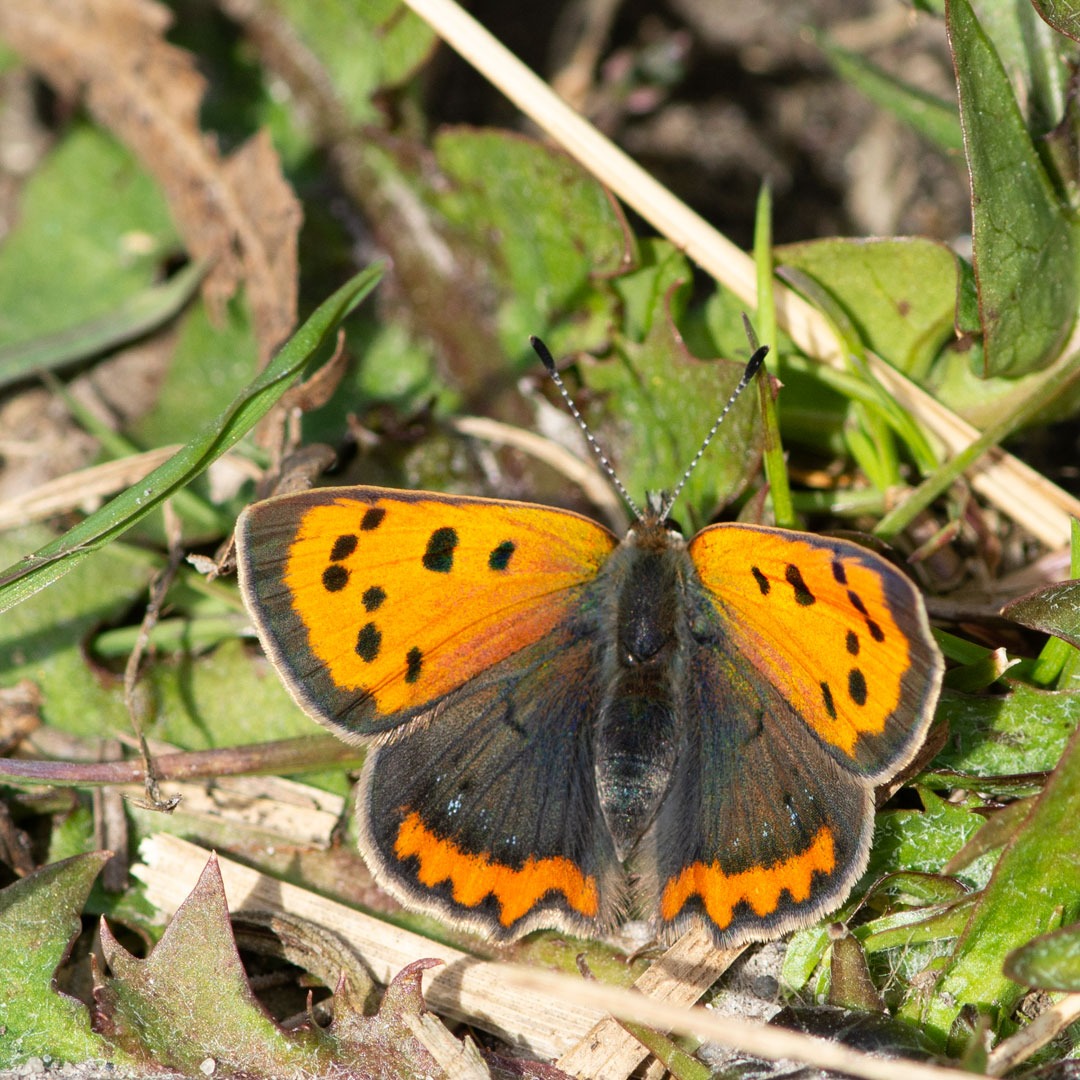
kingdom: Animalia
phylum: Arthropoda
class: Insecta
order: Lepidoptera
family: Lycaenidae
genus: Lycaena
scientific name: Lycaena phlaeas
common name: Lille ildfugl
